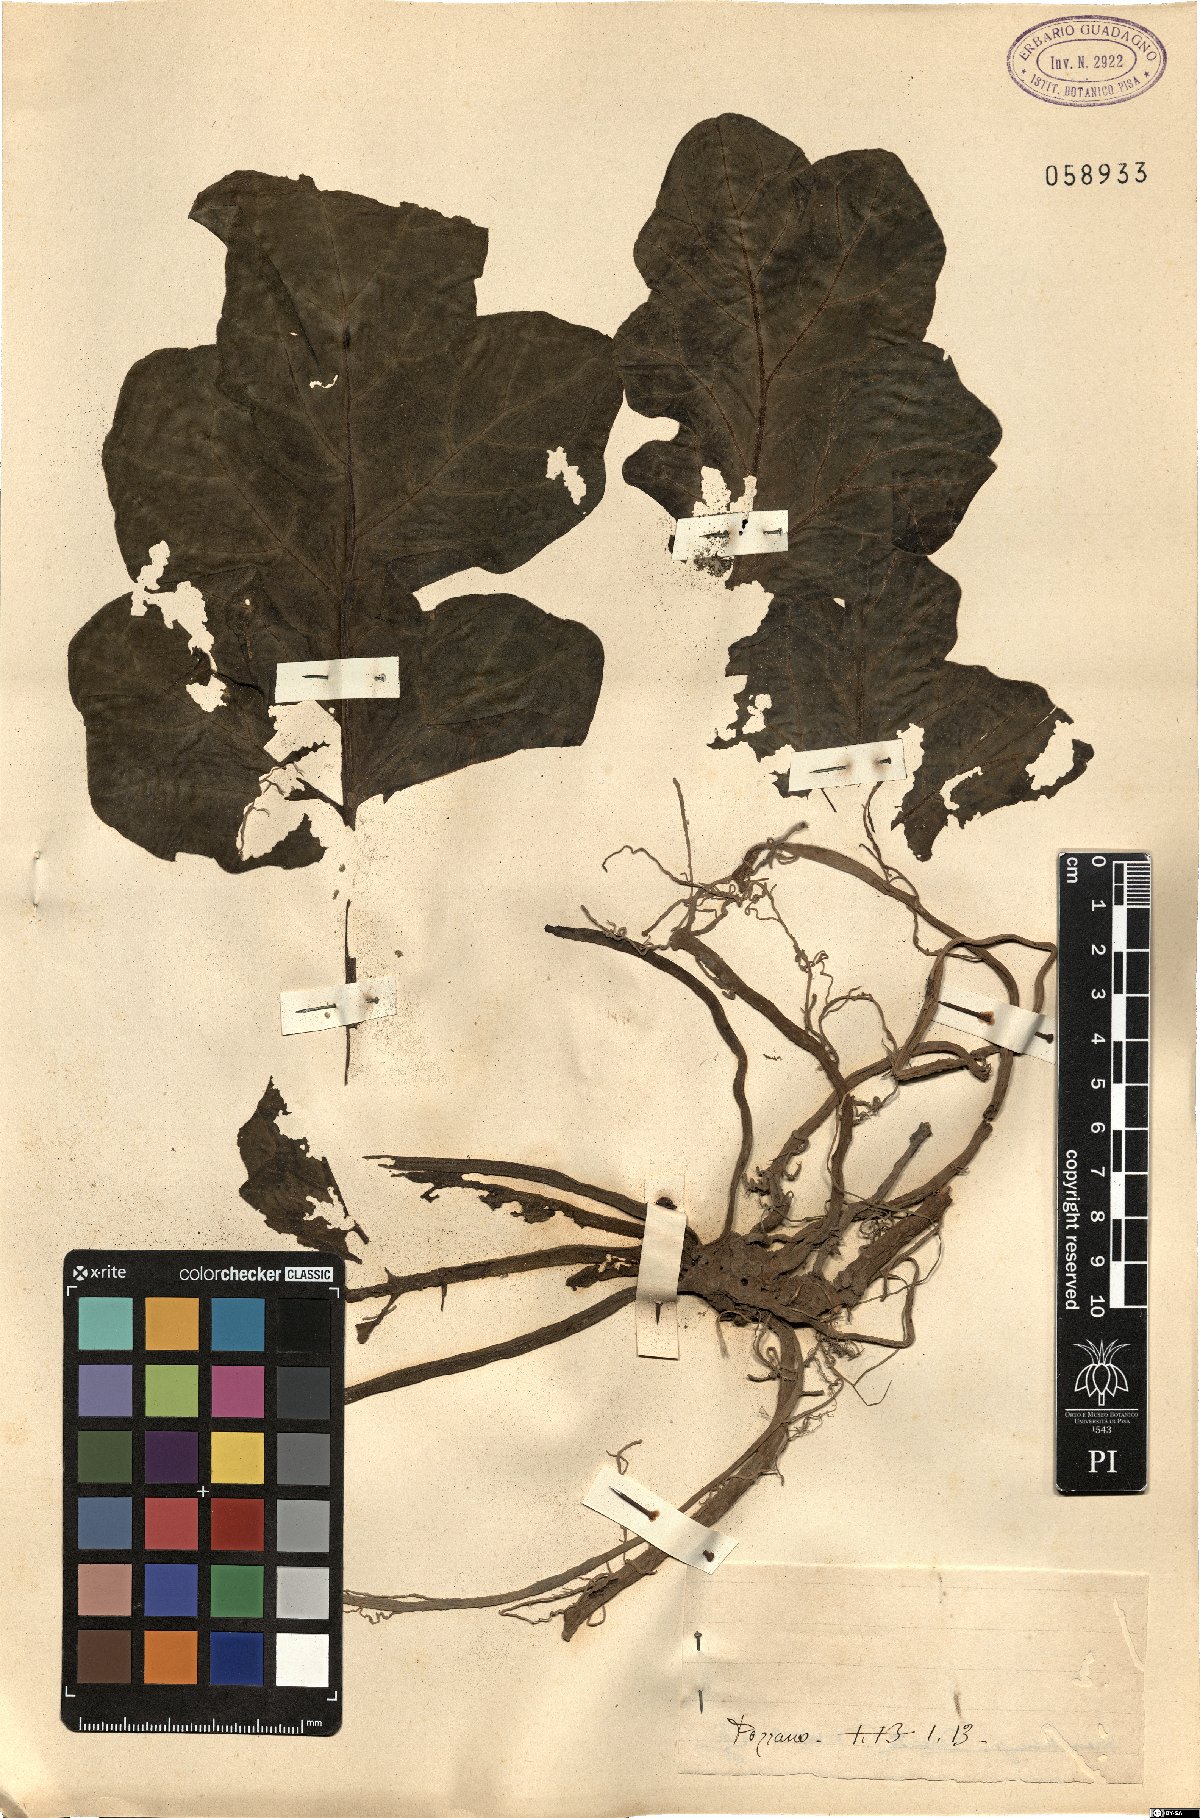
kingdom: Plantae
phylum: Tracheophyta
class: Magnoliopsida
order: Lamiales
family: Acanthaceae
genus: Acanthus
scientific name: Acanthus
